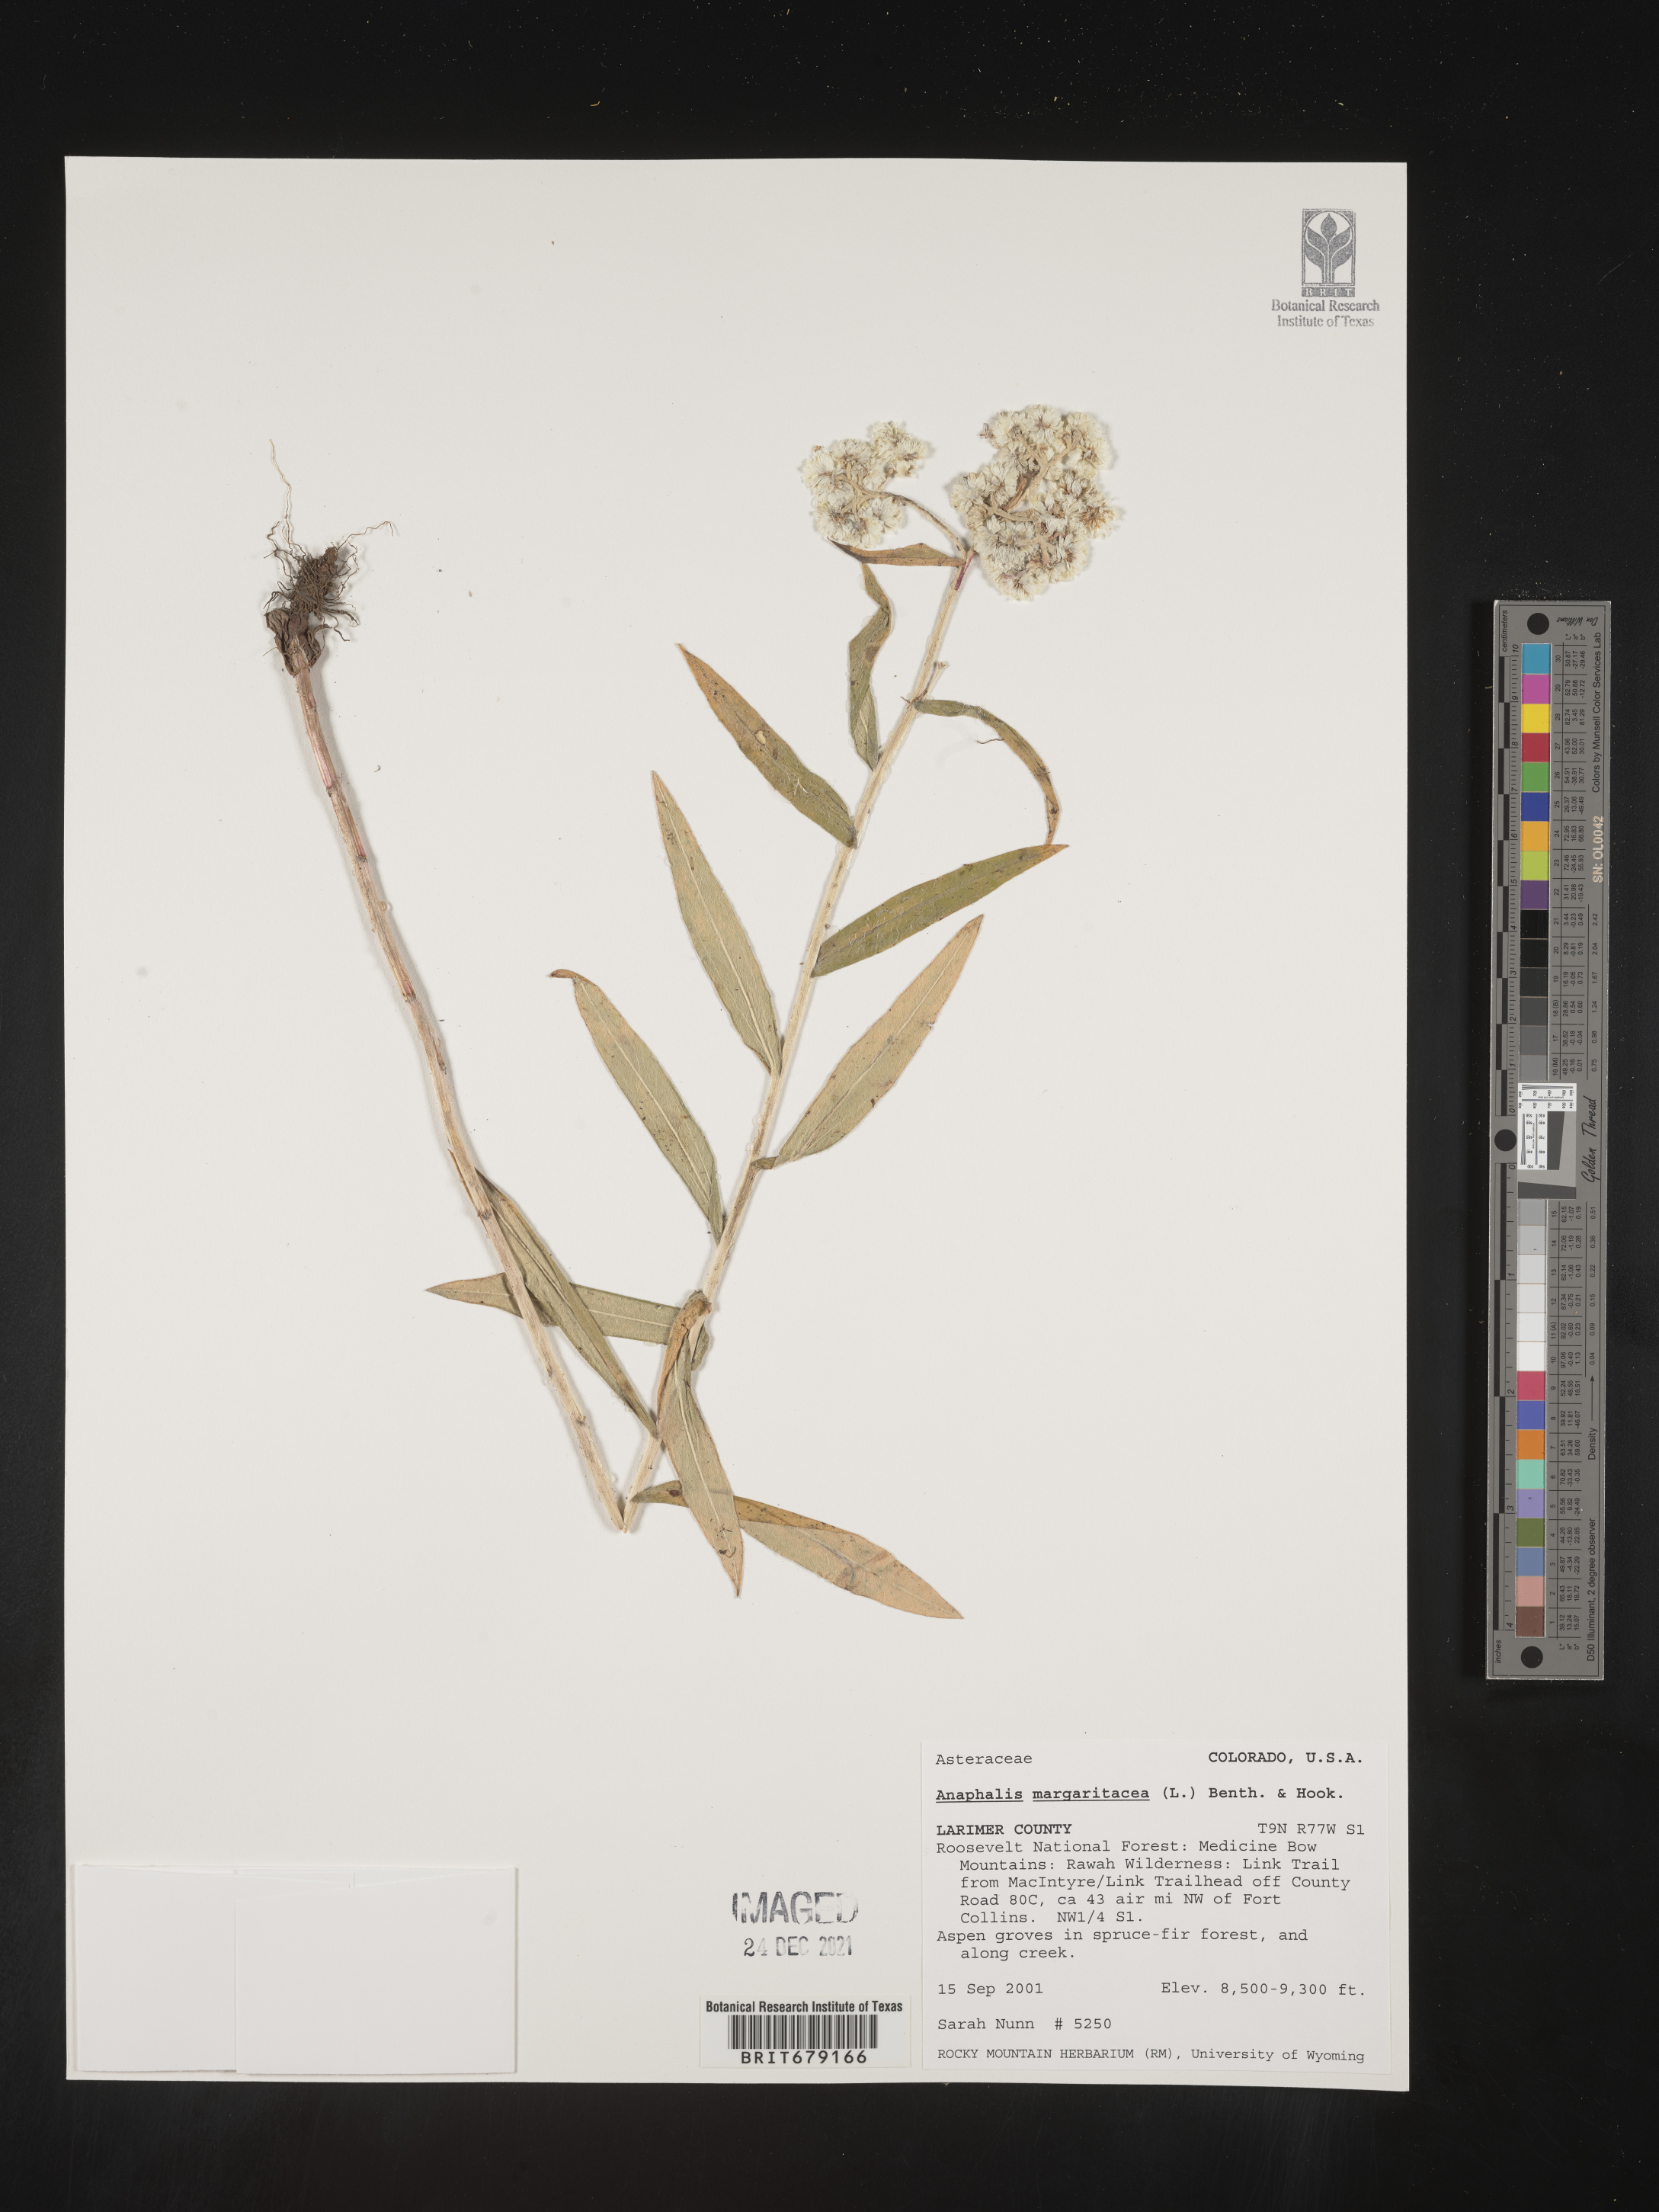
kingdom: Plantae
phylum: Tracheophyta
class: Magnoliopsida
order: Asterales
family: Asteraceae
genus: Anaphalis
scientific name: Anaphalis margaritacea
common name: Pearly everlasting
